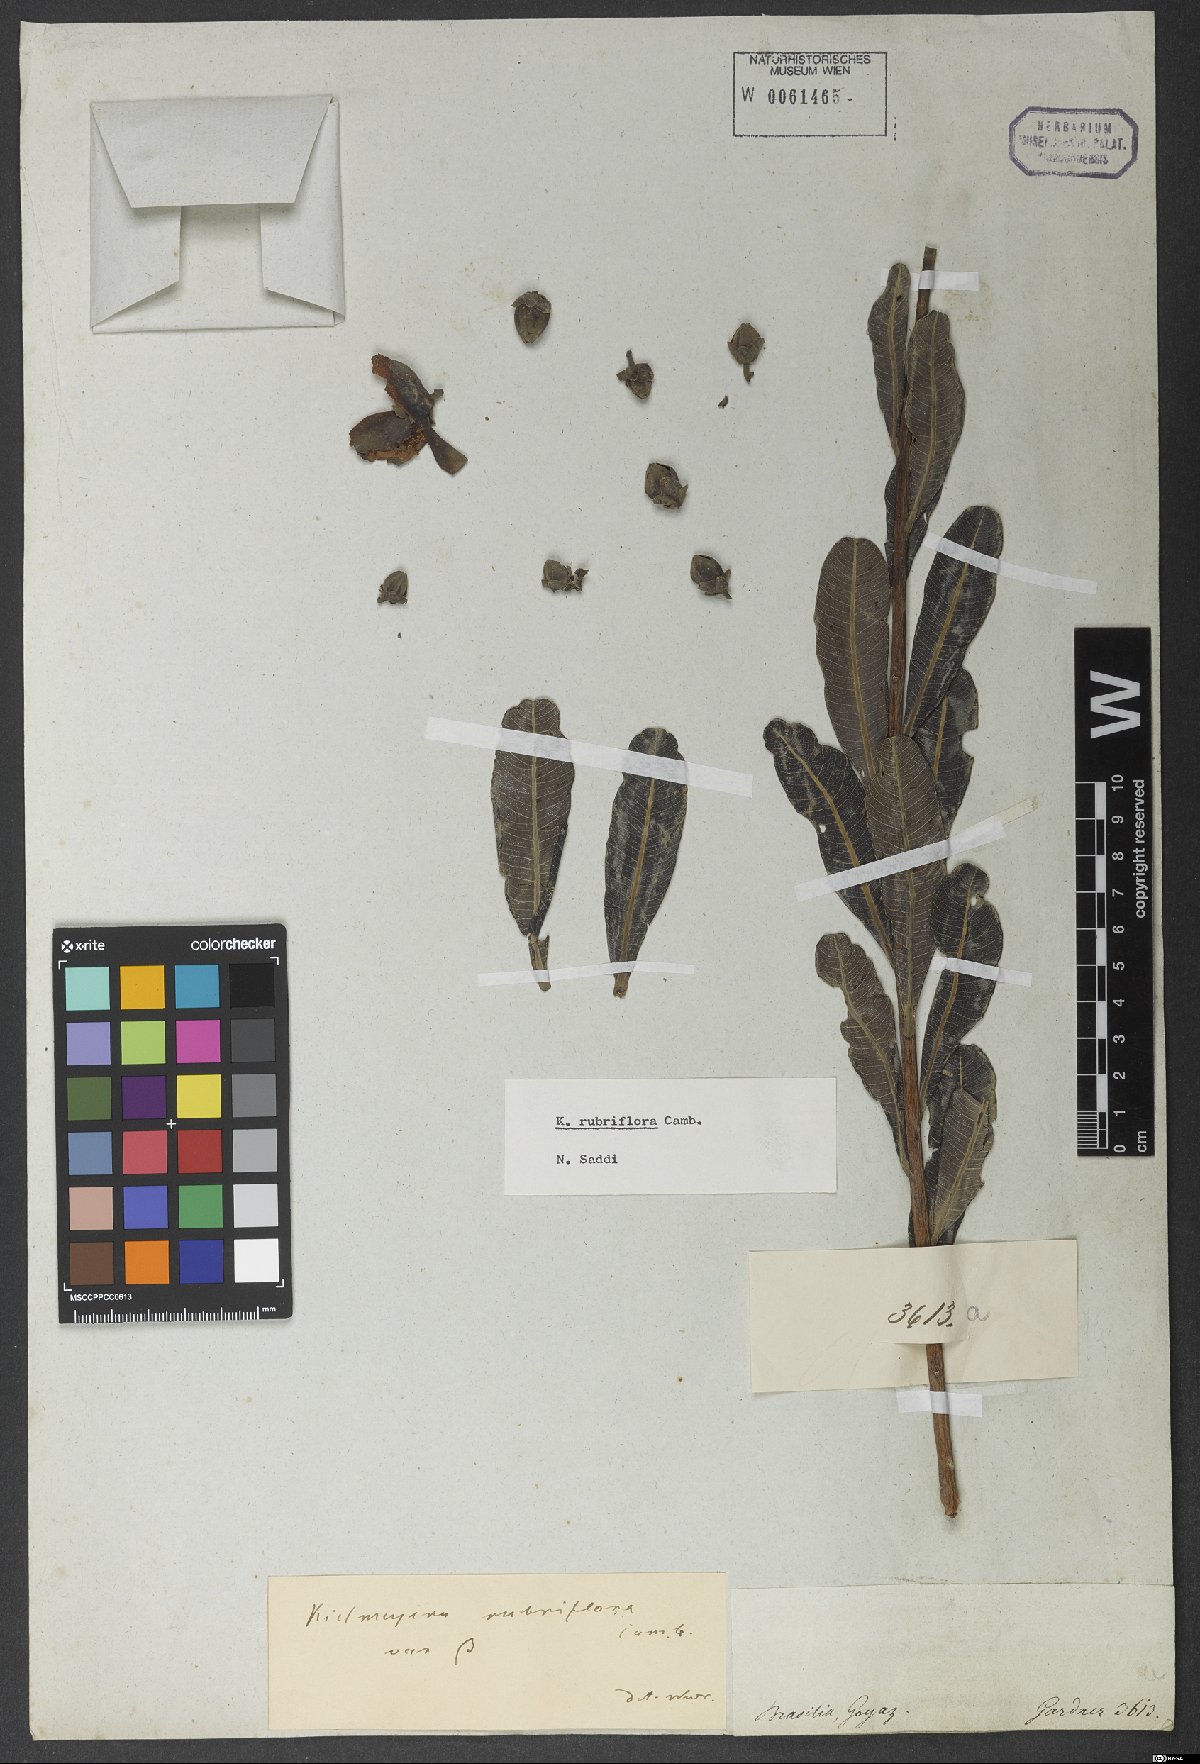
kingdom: Plantae
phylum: Tracheophyta
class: Magnoliopsida
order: Malpighiales
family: Calophyllaceae
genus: Kielmeyera
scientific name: Kielmeyera rubriflora
